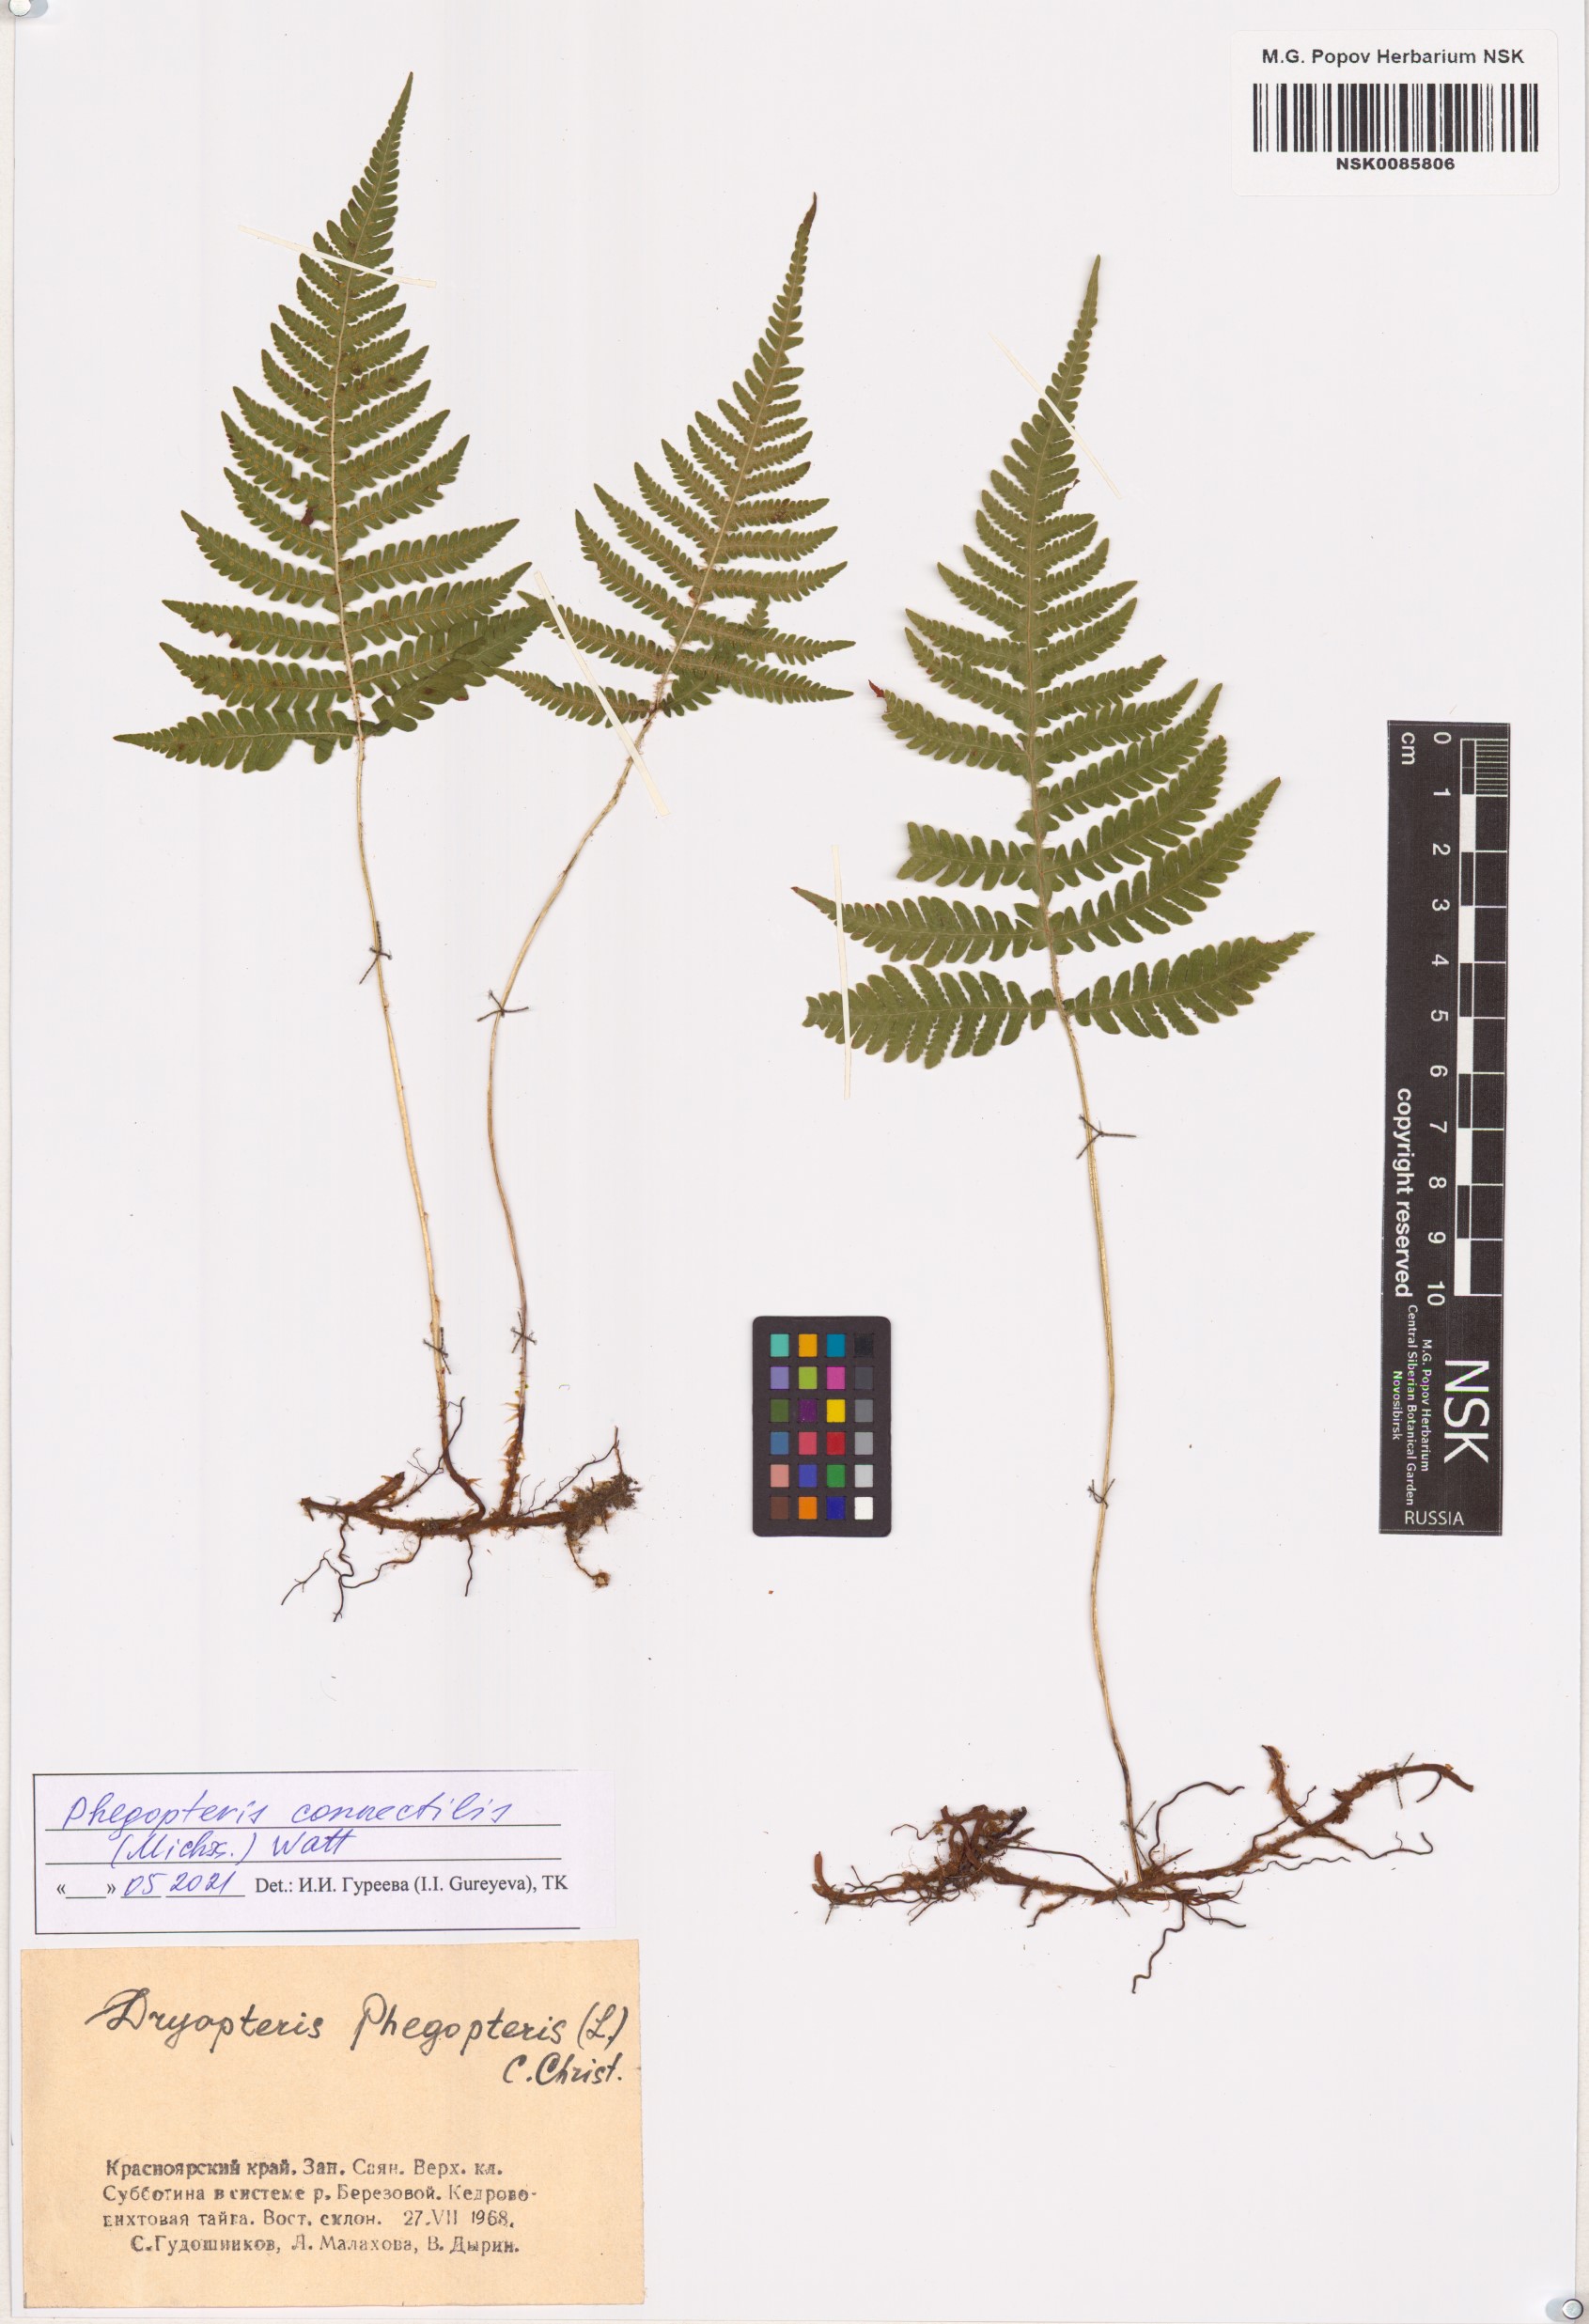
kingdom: Plantae
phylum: Tracheophyta
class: Polypodiopsida
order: Polypodiales
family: Thelypteridaceae
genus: Phegopteris
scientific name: Phegopteris connectilis
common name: Beech fern
